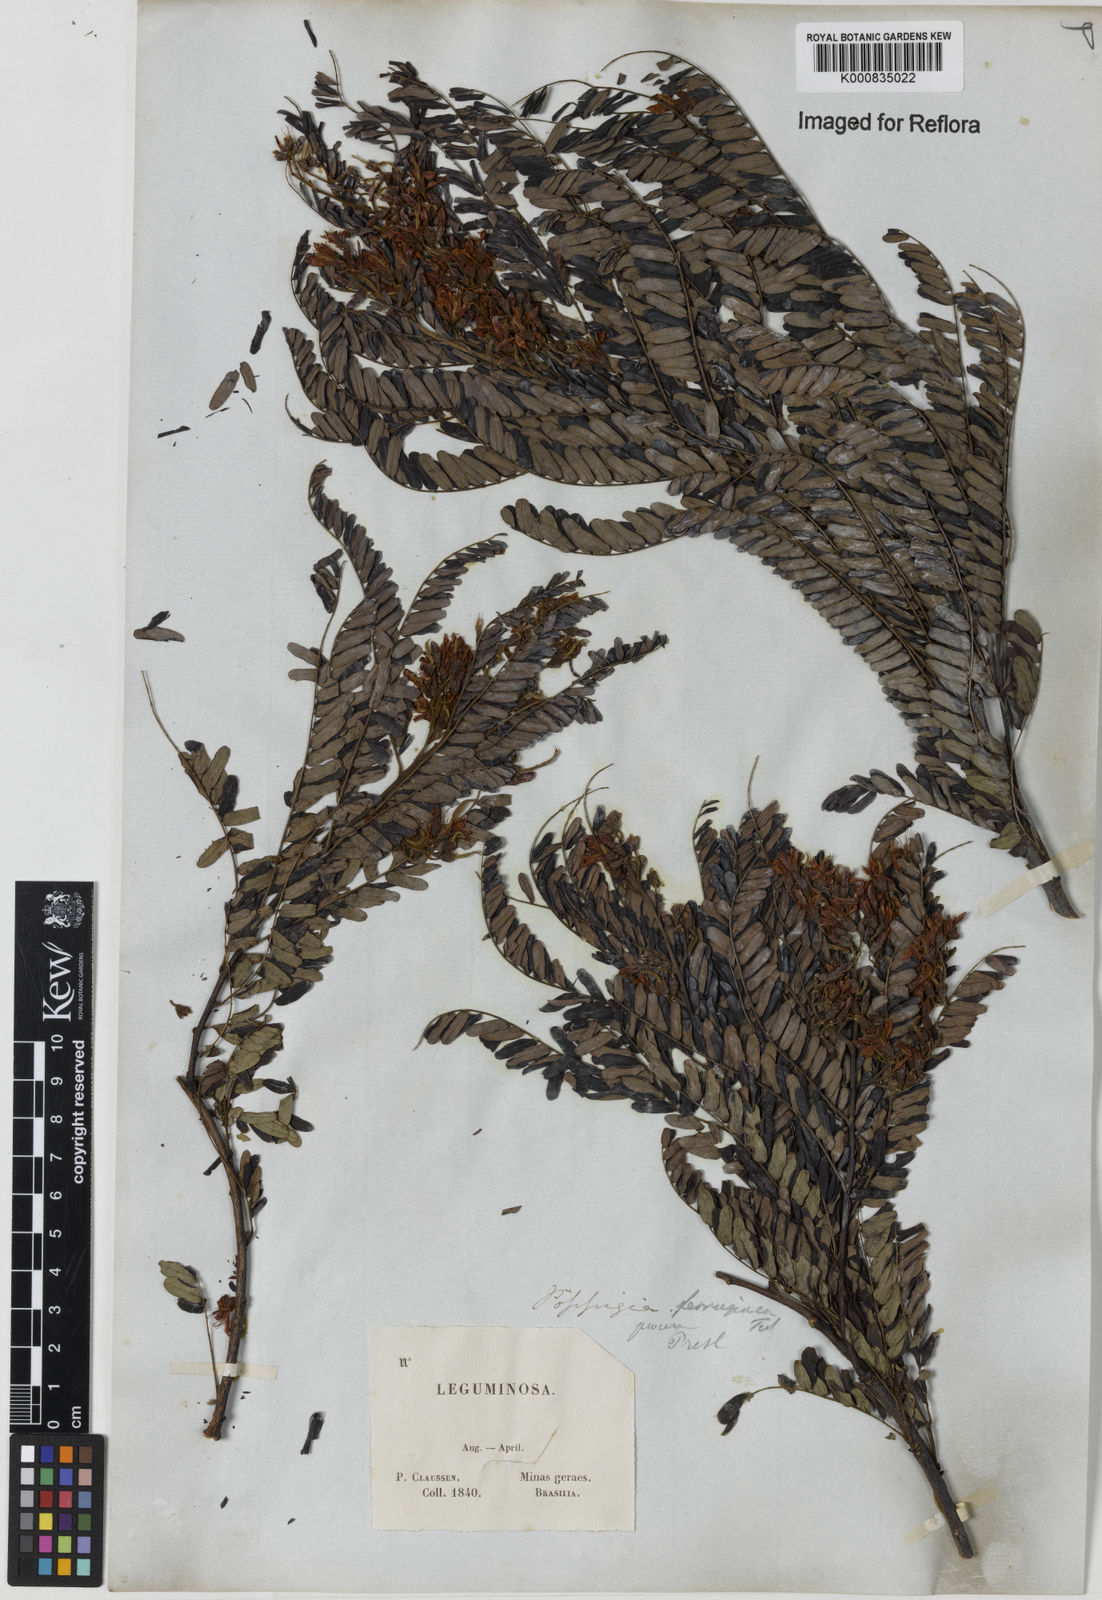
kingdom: Plantae
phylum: Tracheophyta
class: Magnoliopsida
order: Fabales
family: Fabaceae
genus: Poeppigia
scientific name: Poeppigia procera
